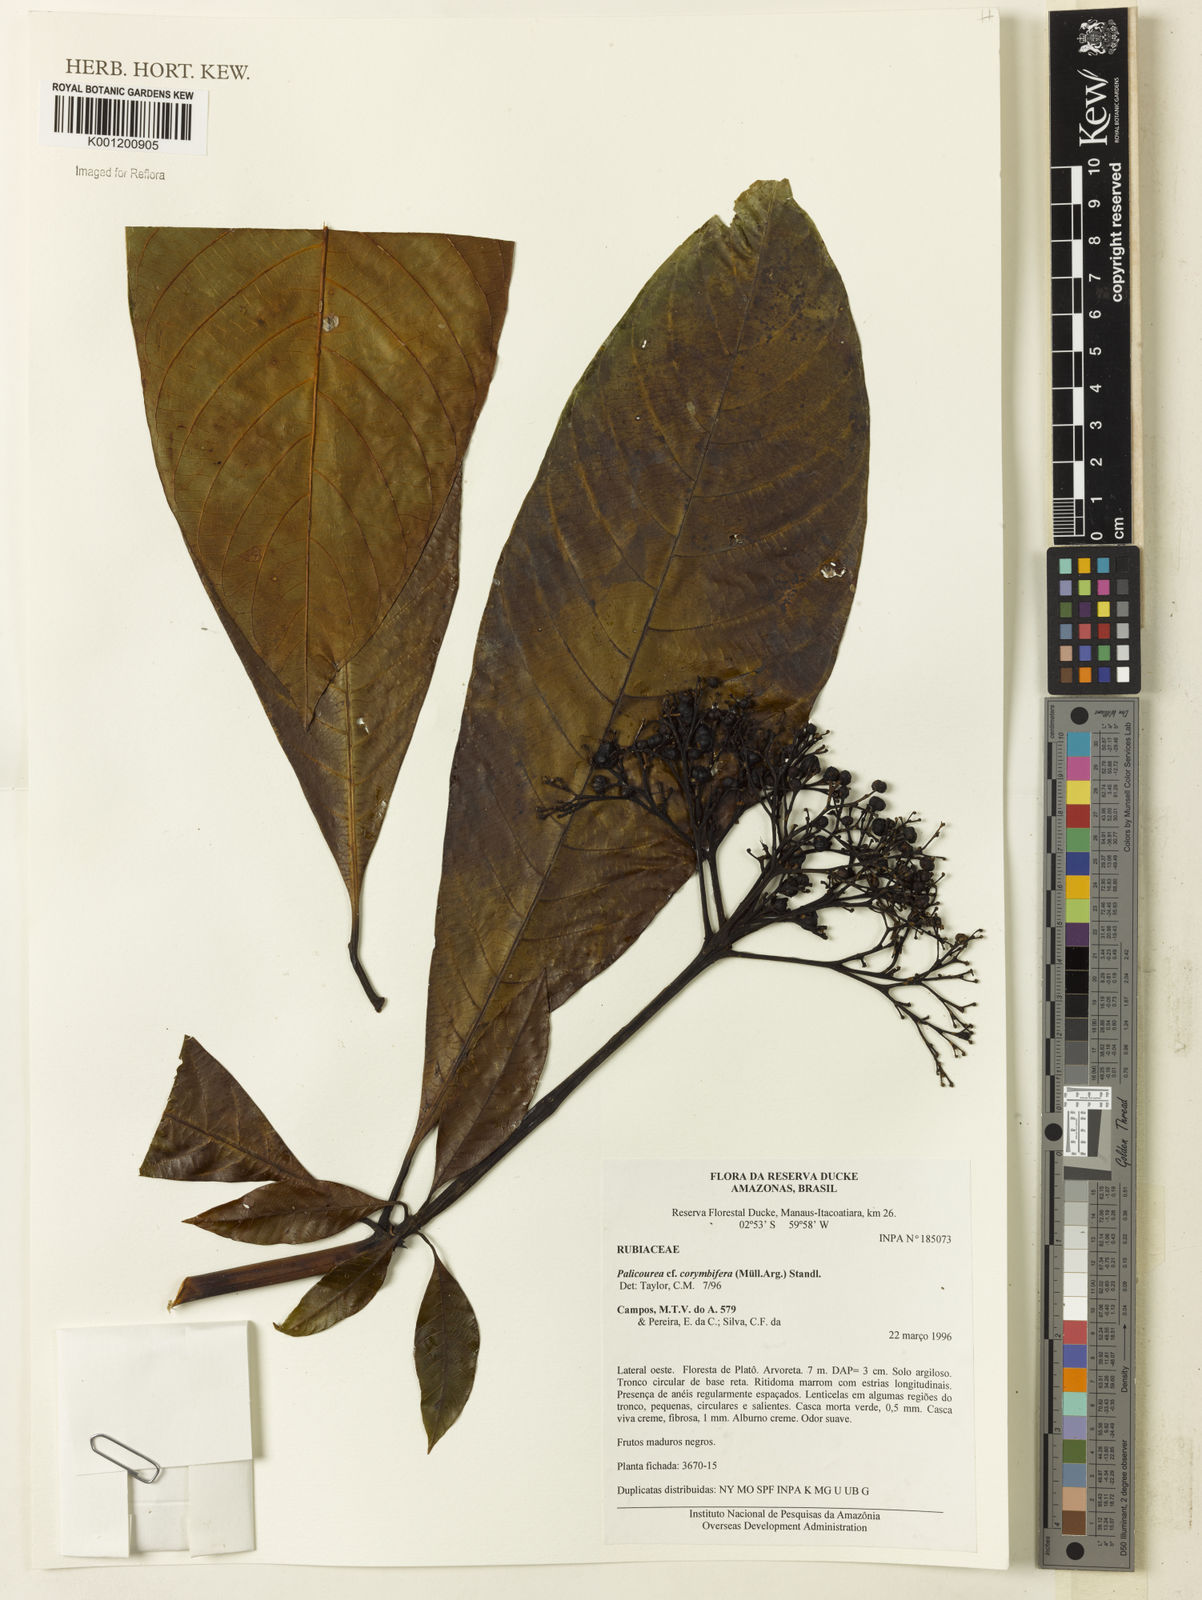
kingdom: Plantae
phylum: Tracheophyta
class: Magnoliopsida
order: Gentianales
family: Rubiaceae
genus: Palicourea
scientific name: Palicourea
